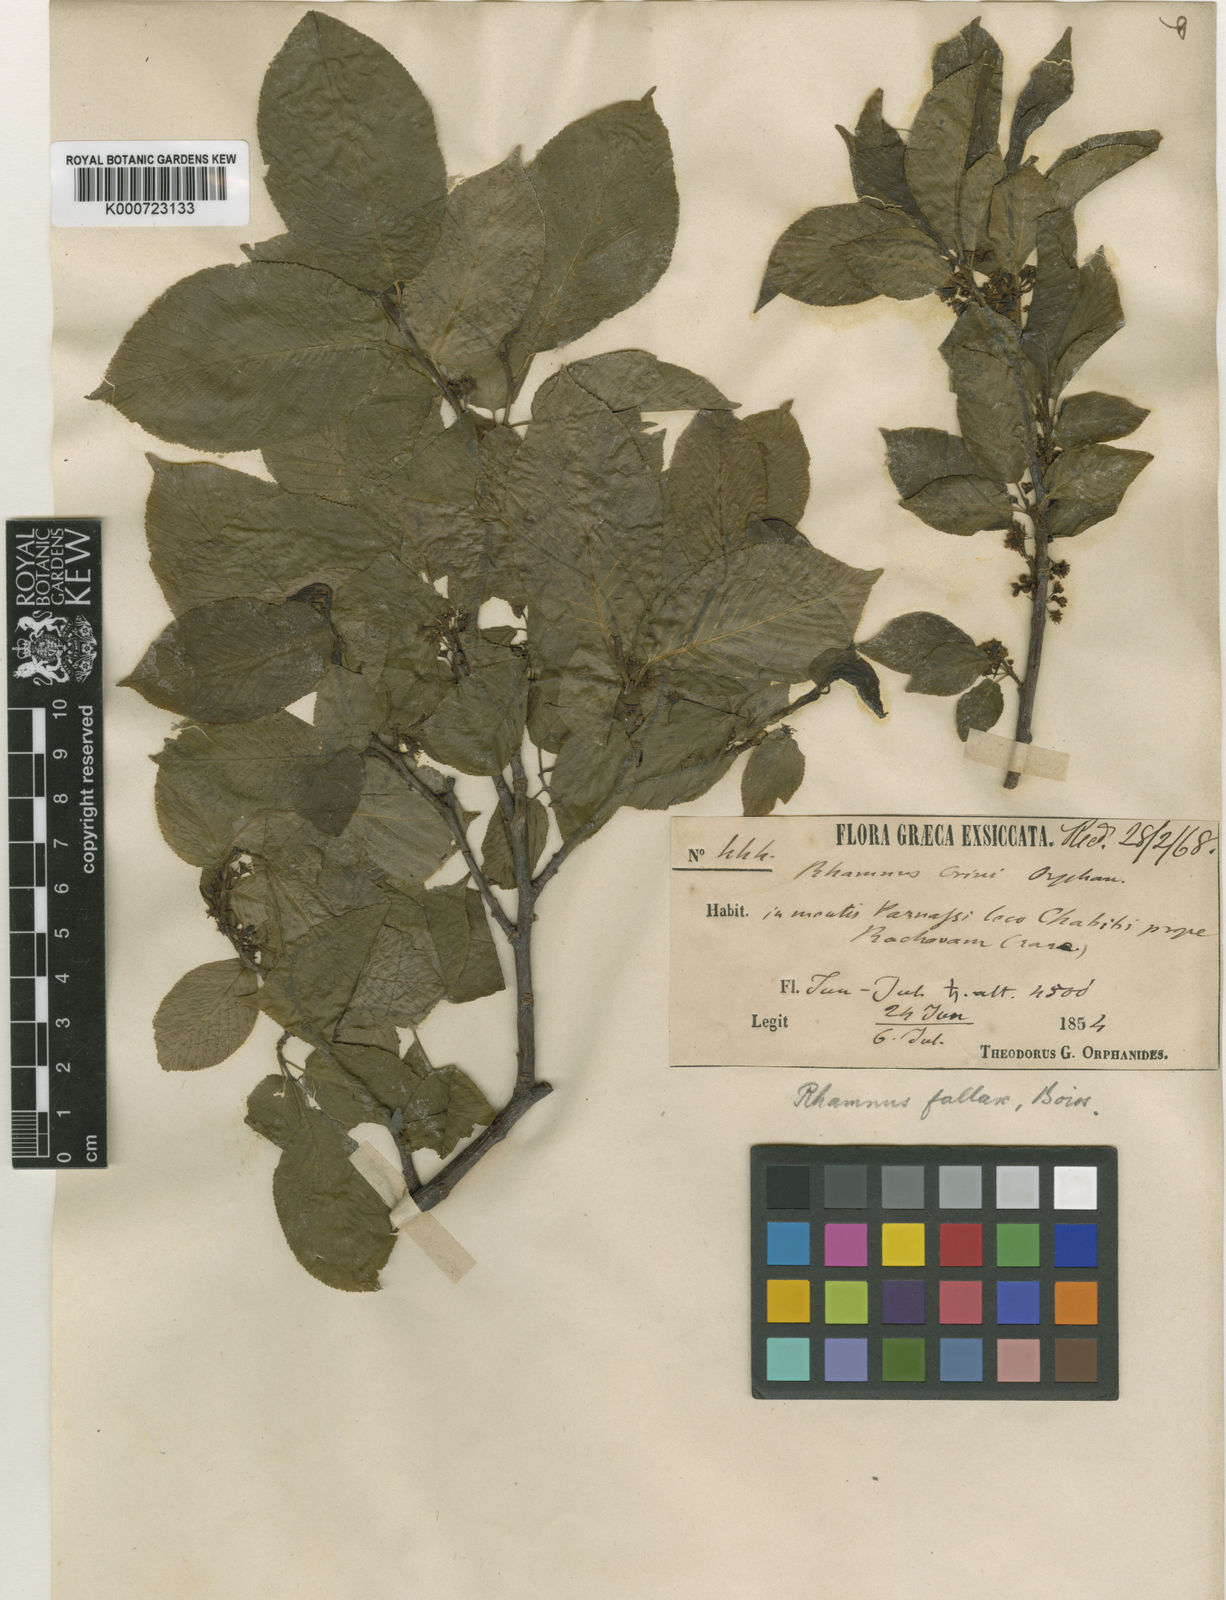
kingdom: Plantae
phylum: Tracheophyta
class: Magnoliopsida
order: Rosales
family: Rhamnaceae
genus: Atadinus
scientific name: Atadinus fallax
